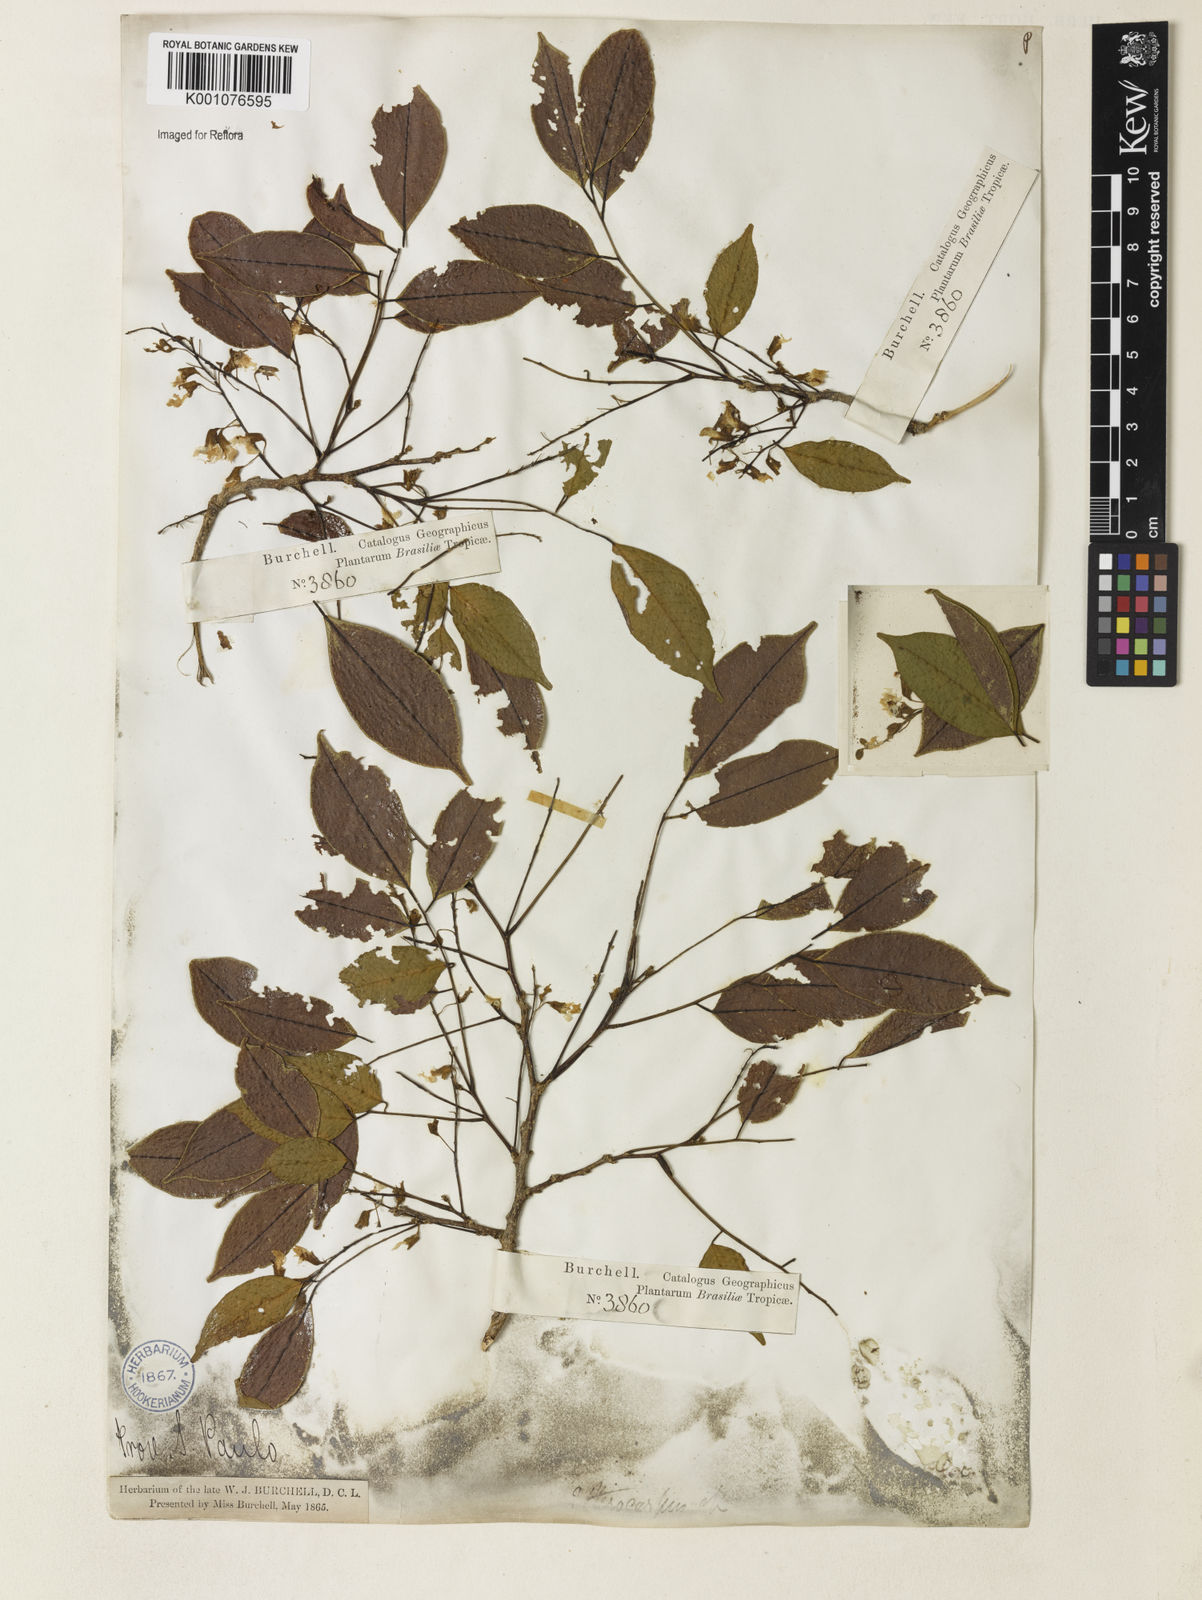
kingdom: Plantae
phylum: Tracheophyta
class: Magnoliopsida
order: Fabales
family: Fabaceae
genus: Pterocarpus
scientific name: Pterocarpus
